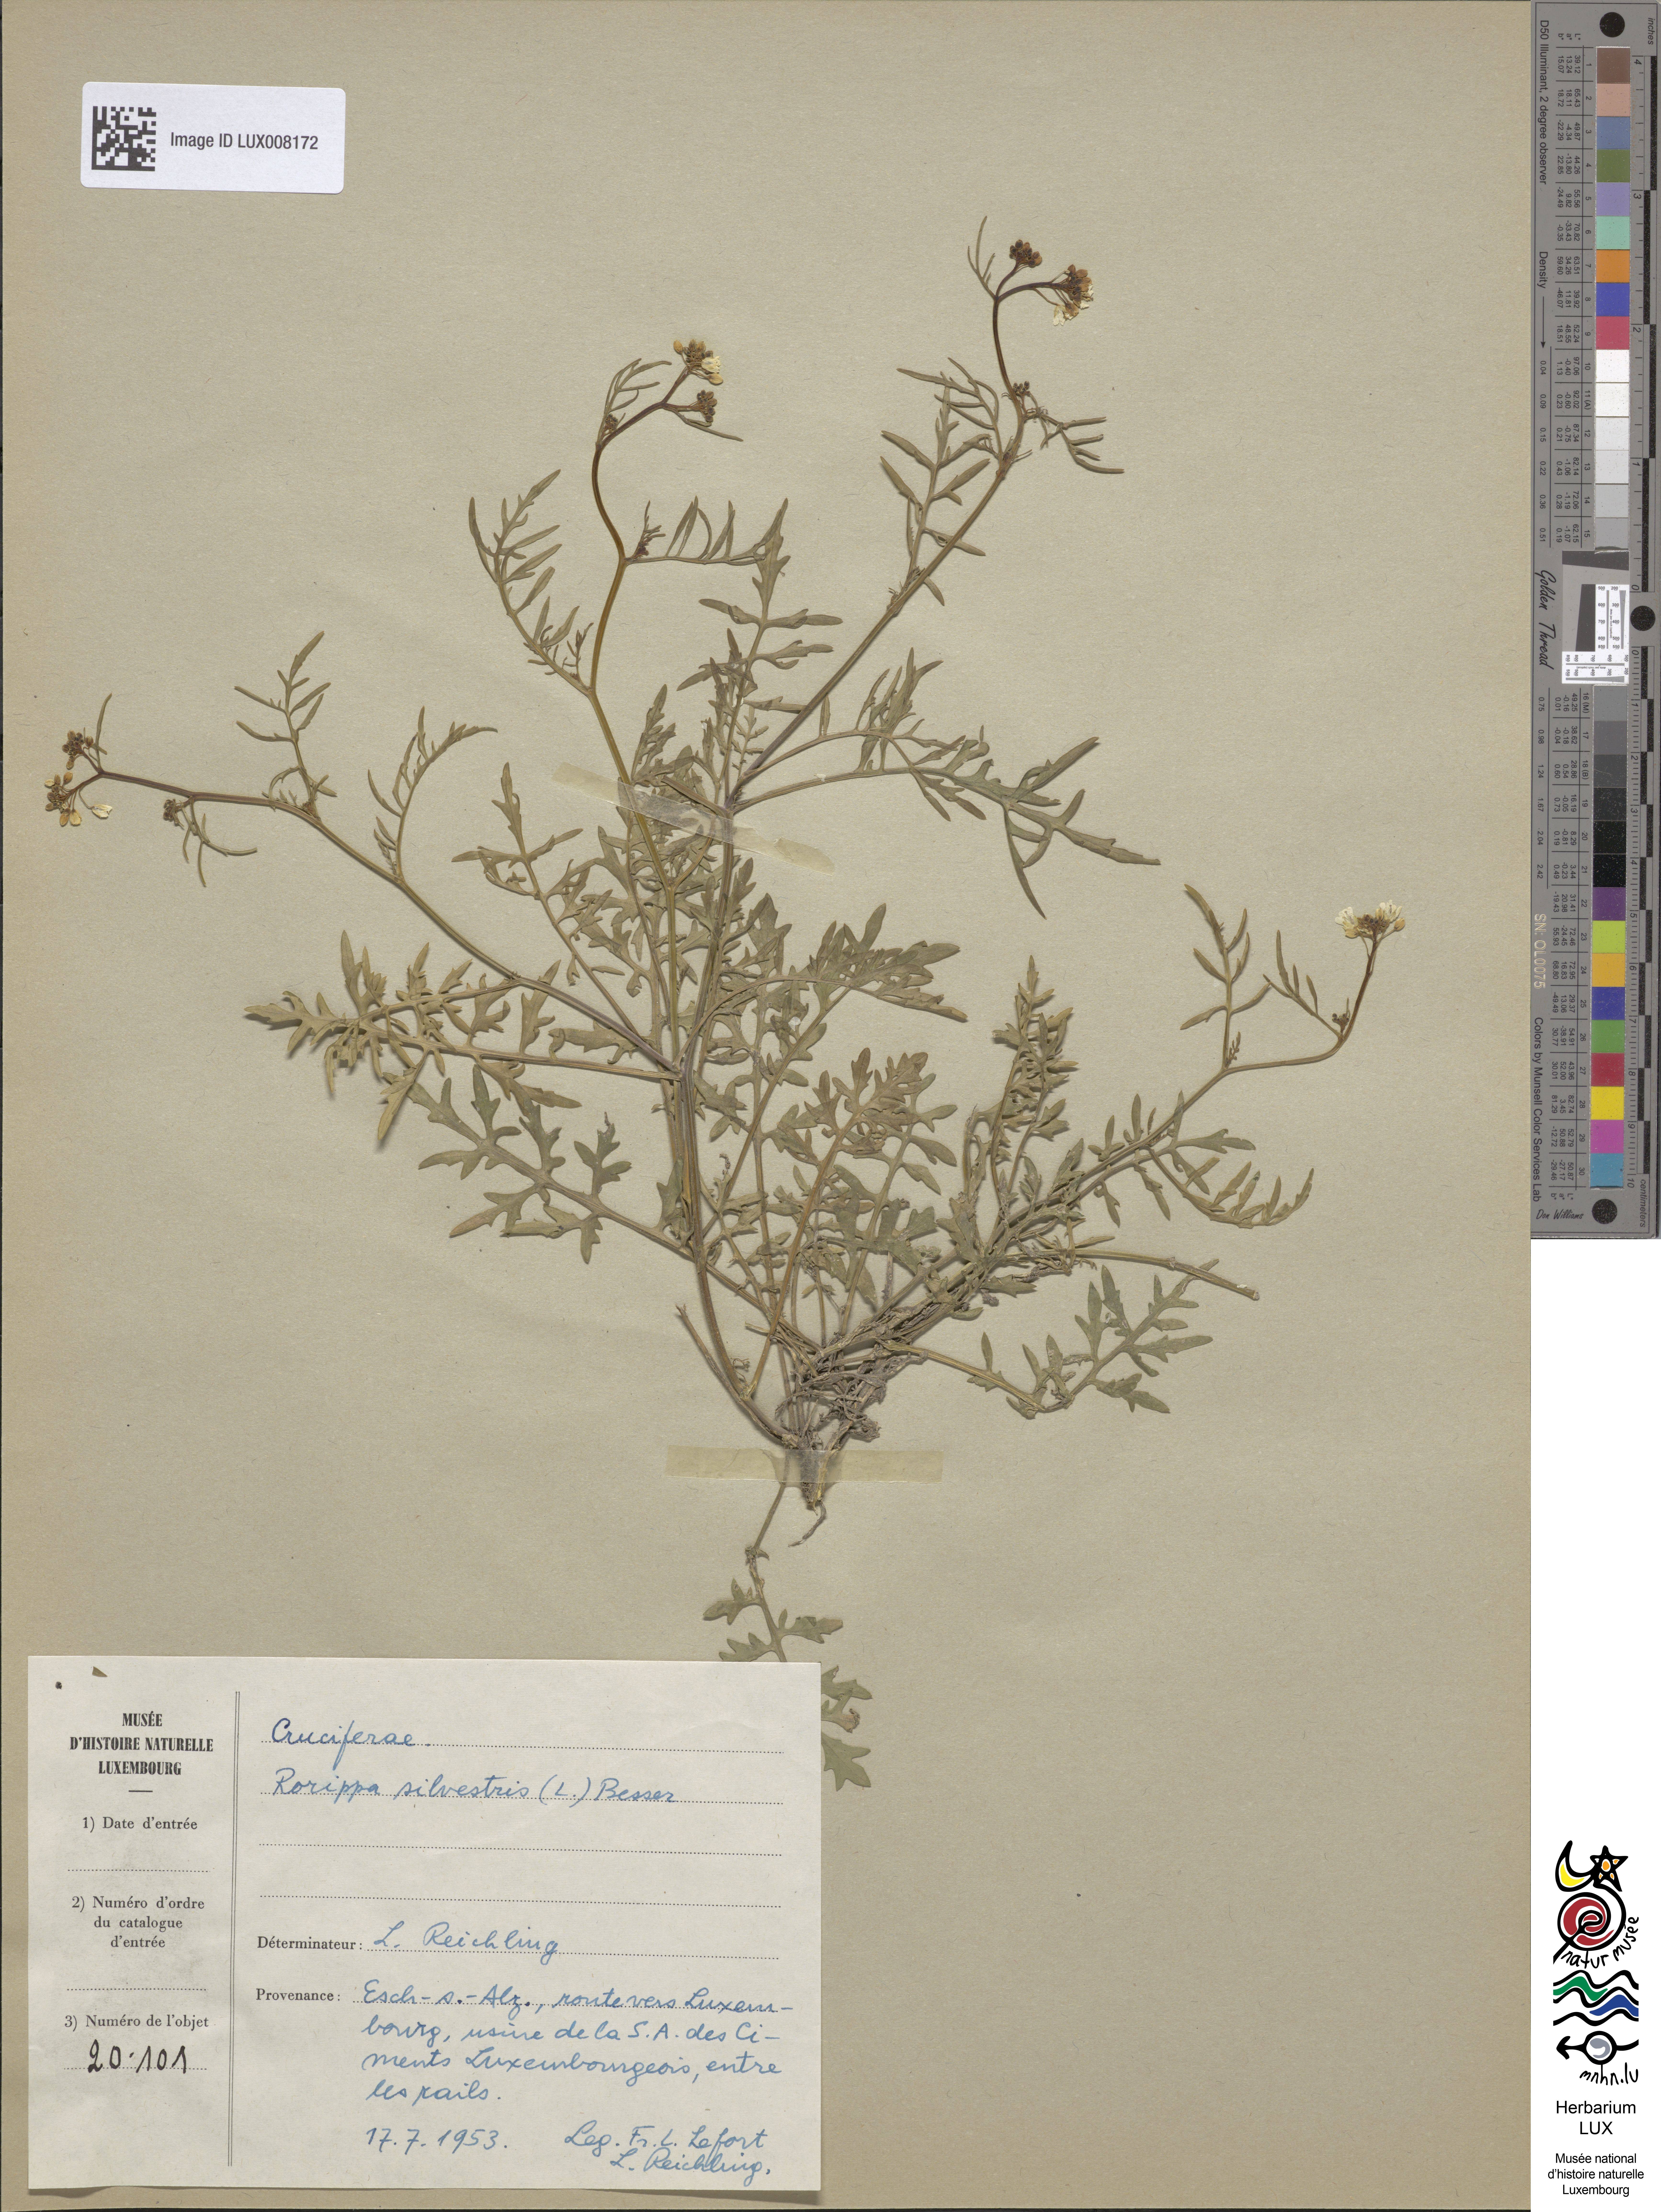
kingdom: Plantae
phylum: Tracheophyta
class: Magnoliopsida
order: Brassicales
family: Brassicaceae
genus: Rorippa
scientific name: Rorippa sylvestris
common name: Creeping yellowcress
